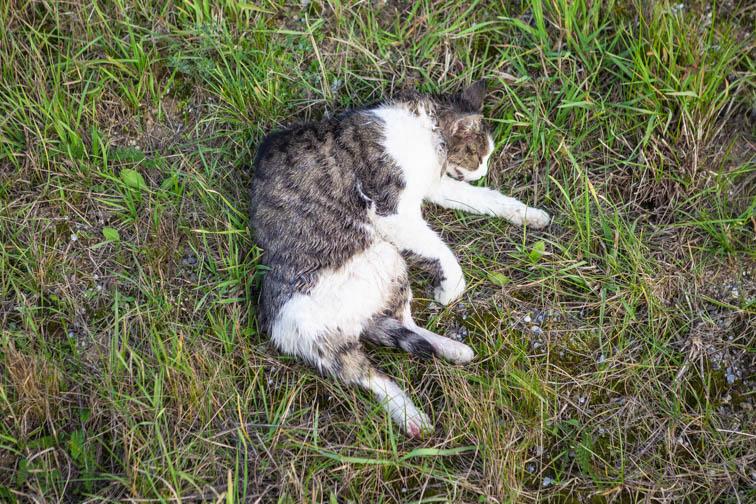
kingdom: Animalia
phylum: Chordata
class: Mammalia
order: Carnivora
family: Felidae
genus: Felis
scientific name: Felis catus
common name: Domestic cat
